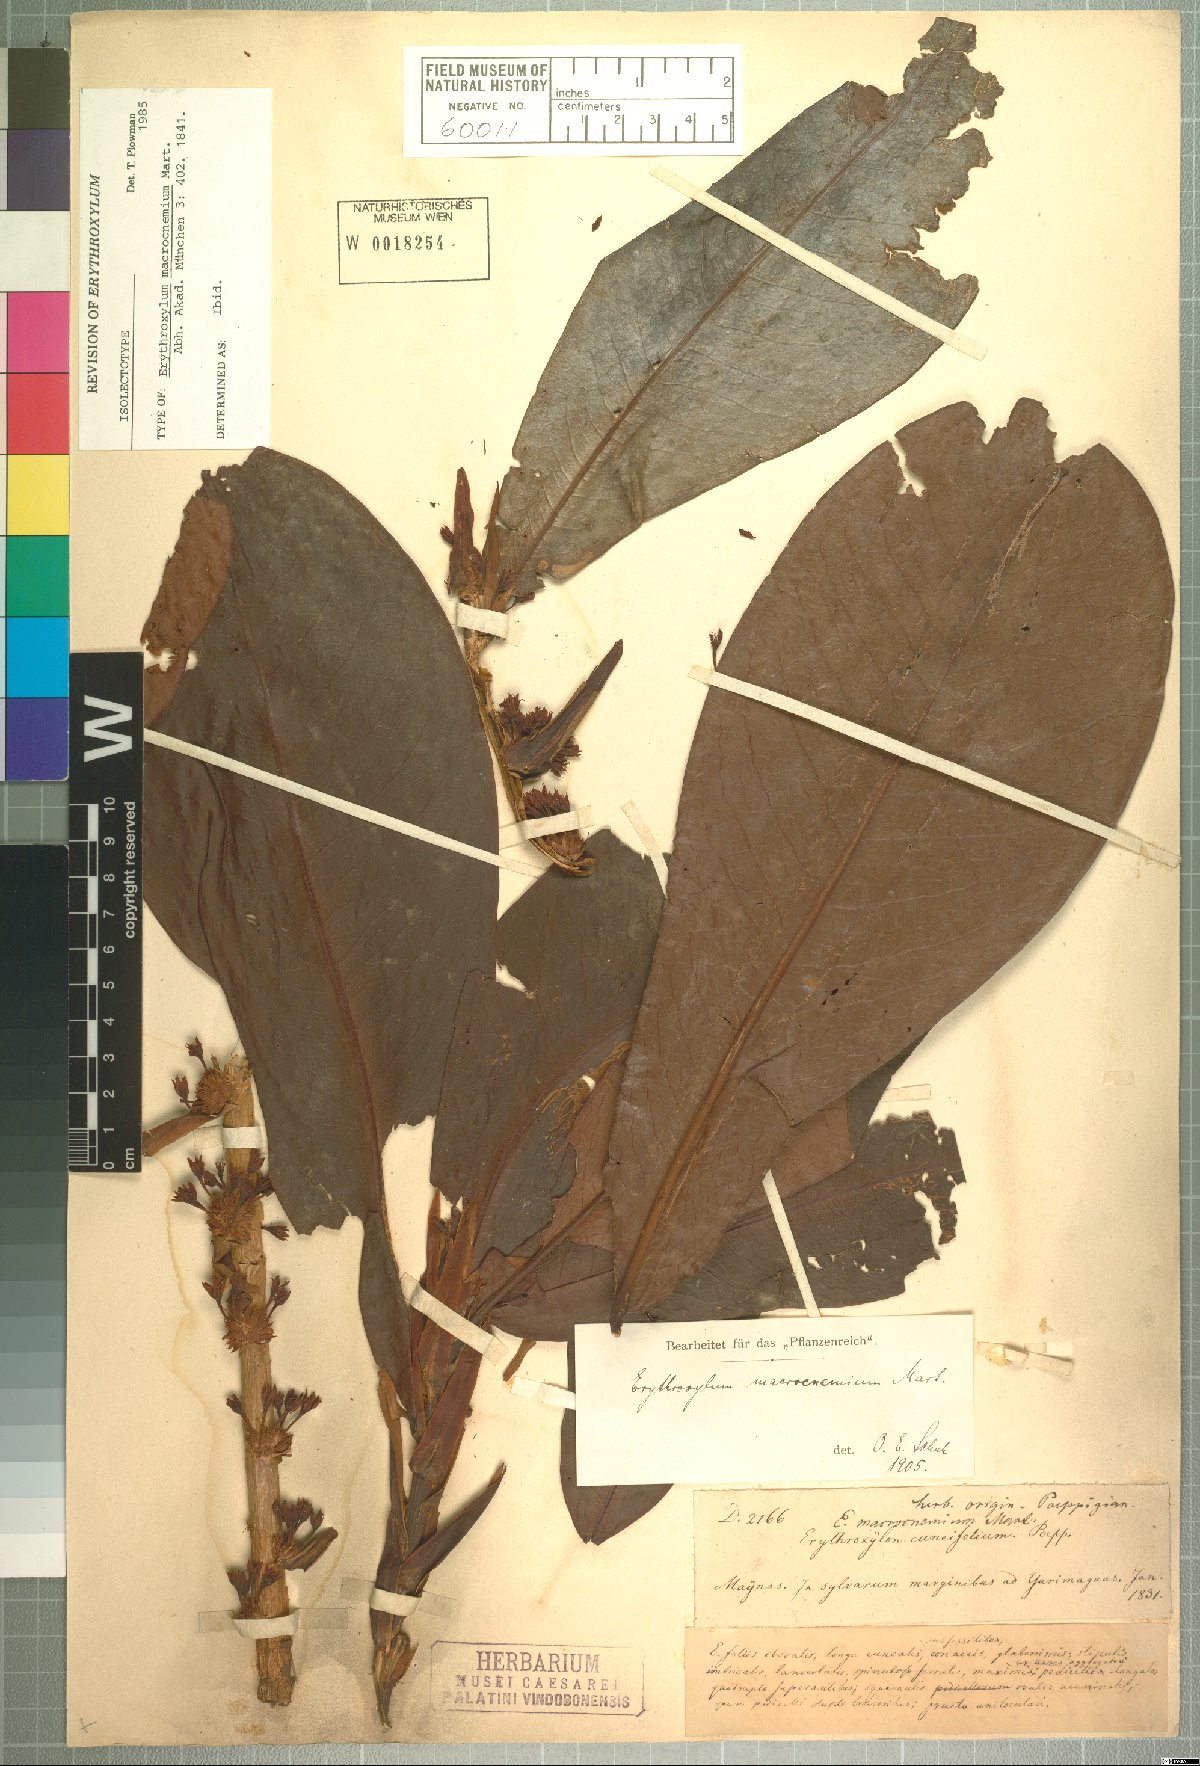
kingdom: Plantae
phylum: Tracheophyta
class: Magnoliopsida
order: Malpighiales
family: Erythroxylaceae
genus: Erythroxylum
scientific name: Erythroxylum macrophyllum
